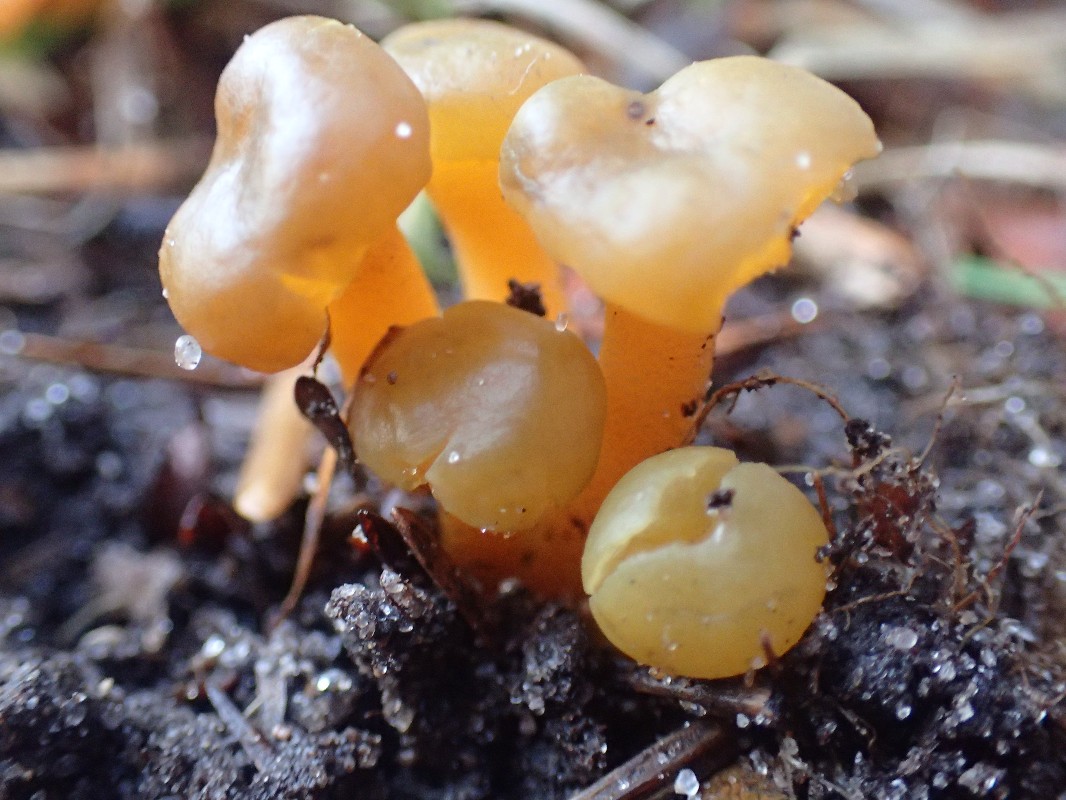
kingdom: Fungi
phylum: Ascomycota
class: Leotiomycetes
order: Leotiales
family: Leotiaceae
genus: Leotia
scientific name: Leotia lubrica
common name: ravsvamp
